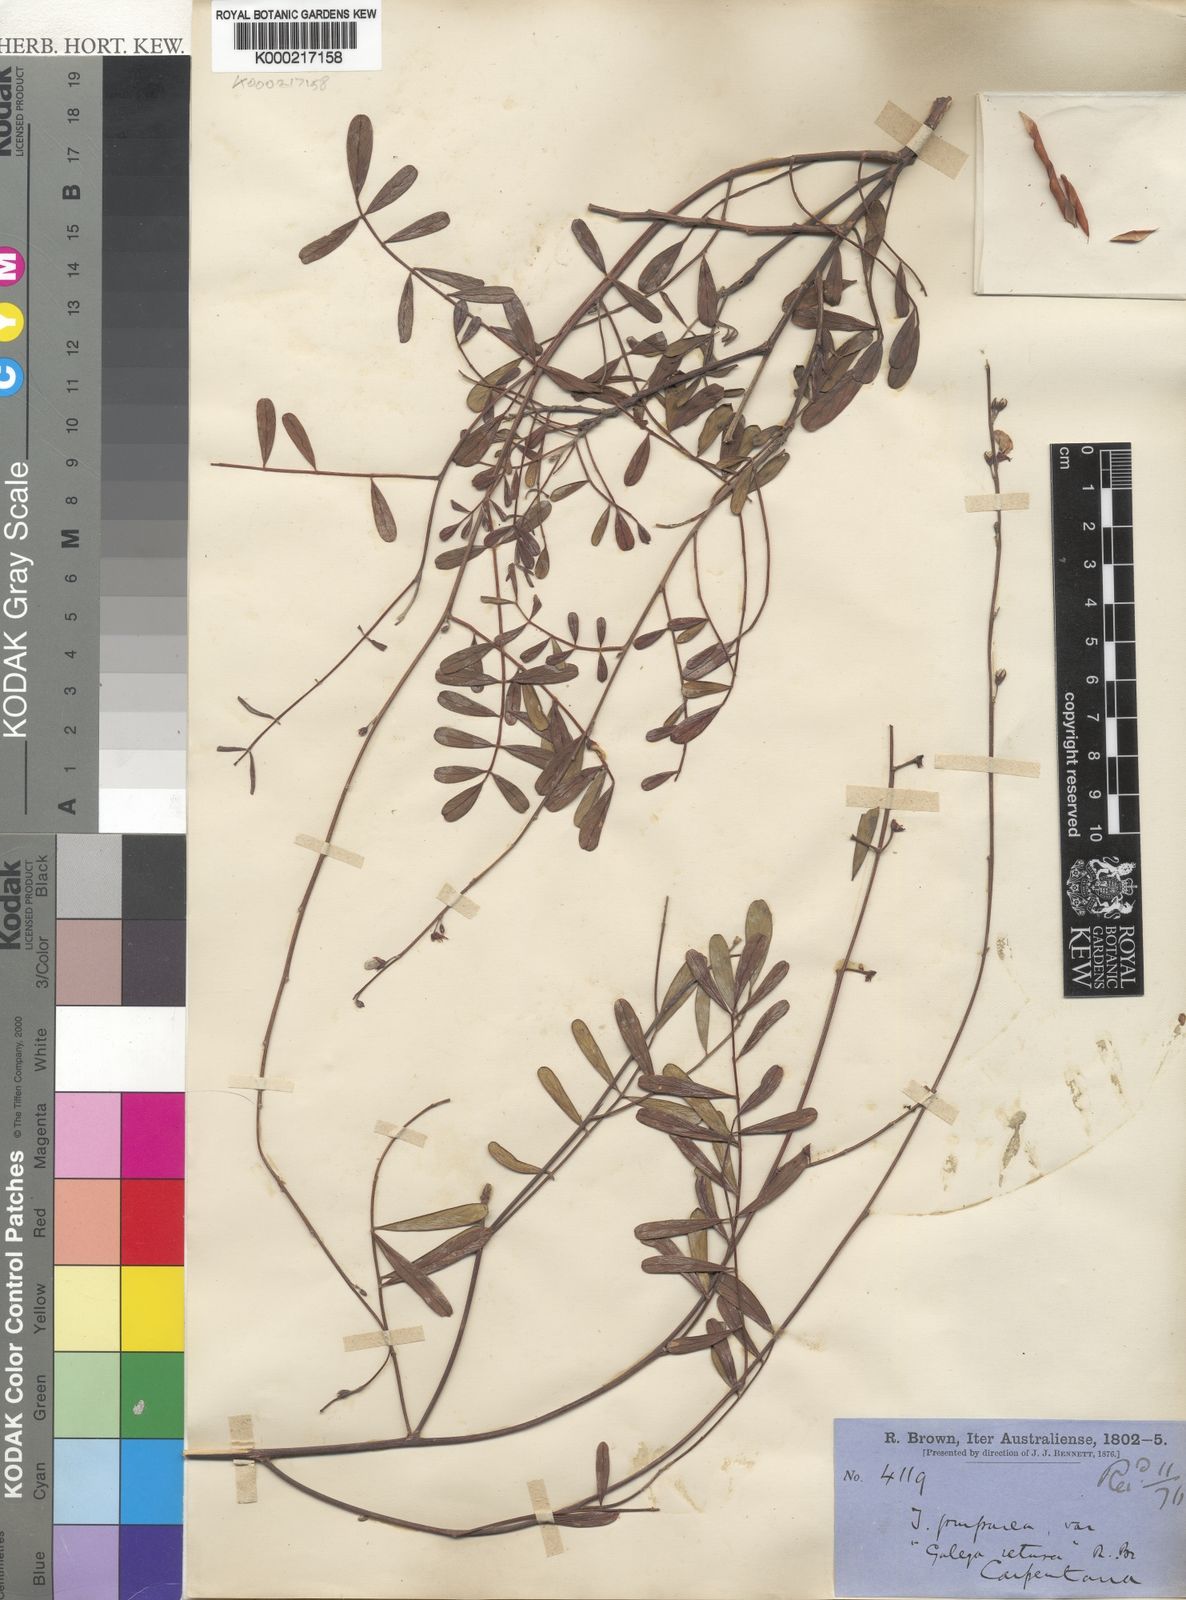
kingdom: Plantae
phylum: Tracheophyta
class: Magnoliopsida
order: Fabales
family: Fabaceae
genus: Tephrosia
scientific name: Tephrosia purpurea
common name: Fishpoison
